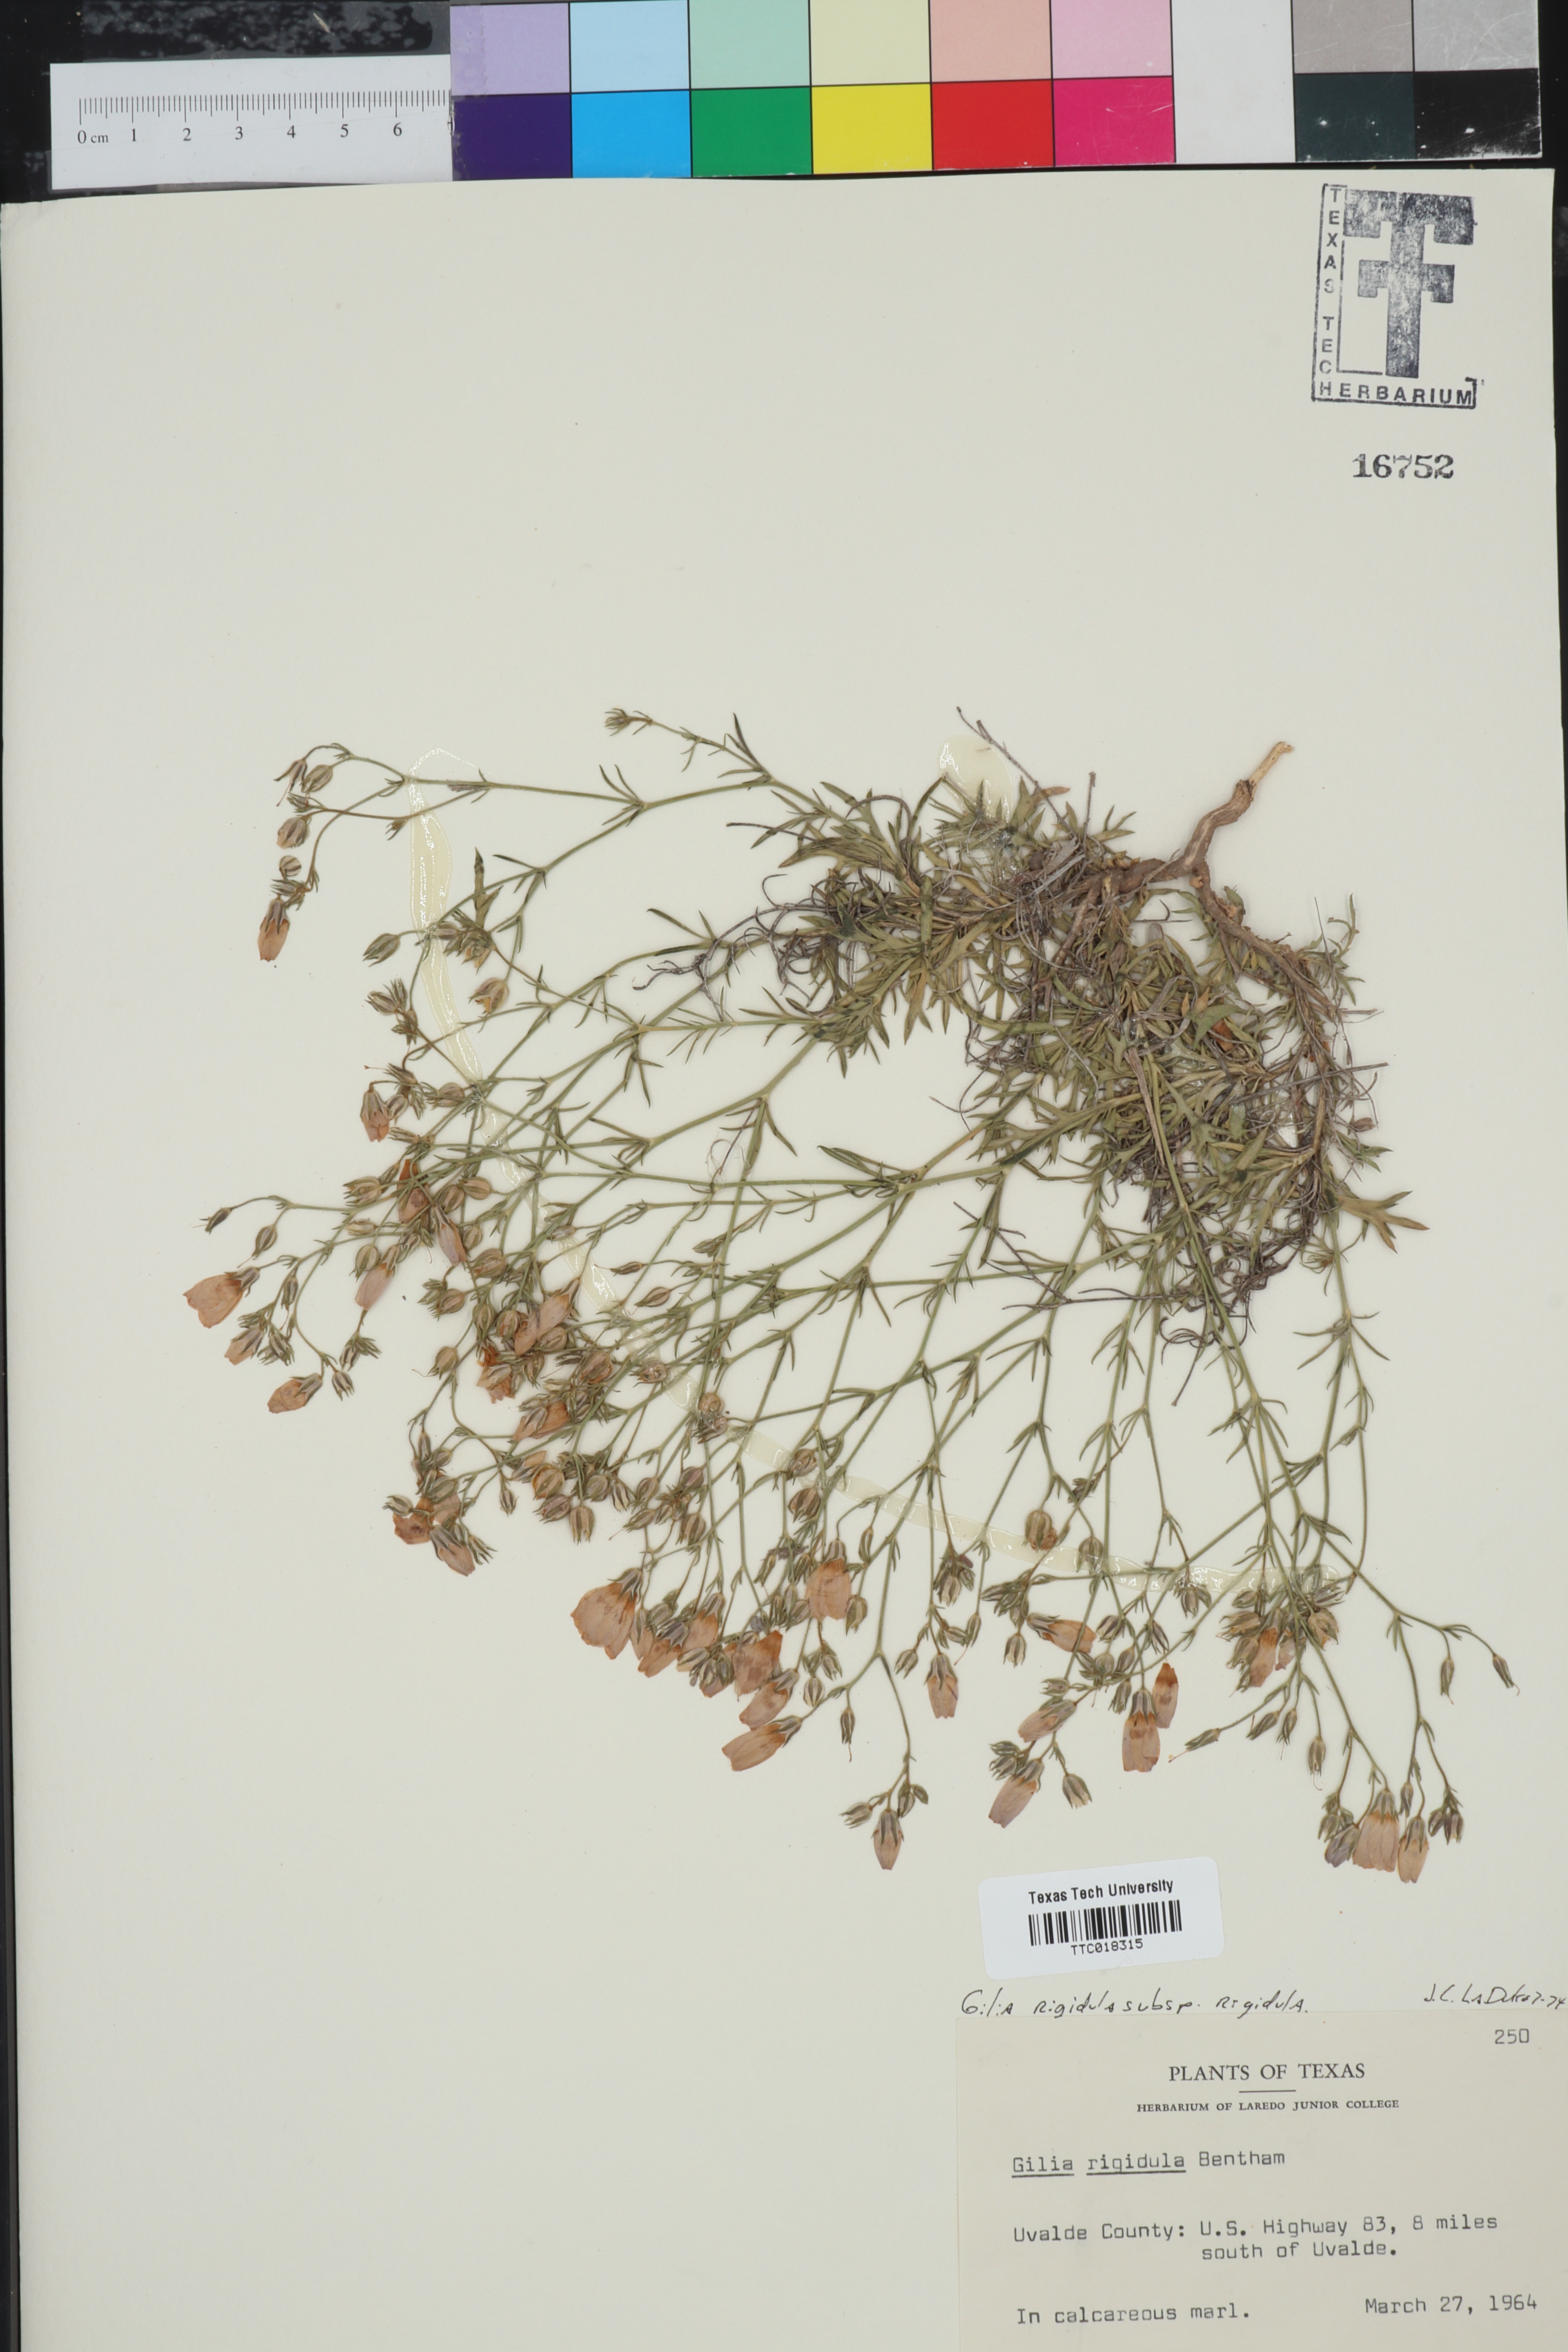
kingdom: Plantae
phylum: Tracheophyta
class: Magnoliopsida
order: Ericales
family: Polemoniaceae
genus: Giliastrum
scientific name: Giliastrum rigidulum
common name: Bluebowls
